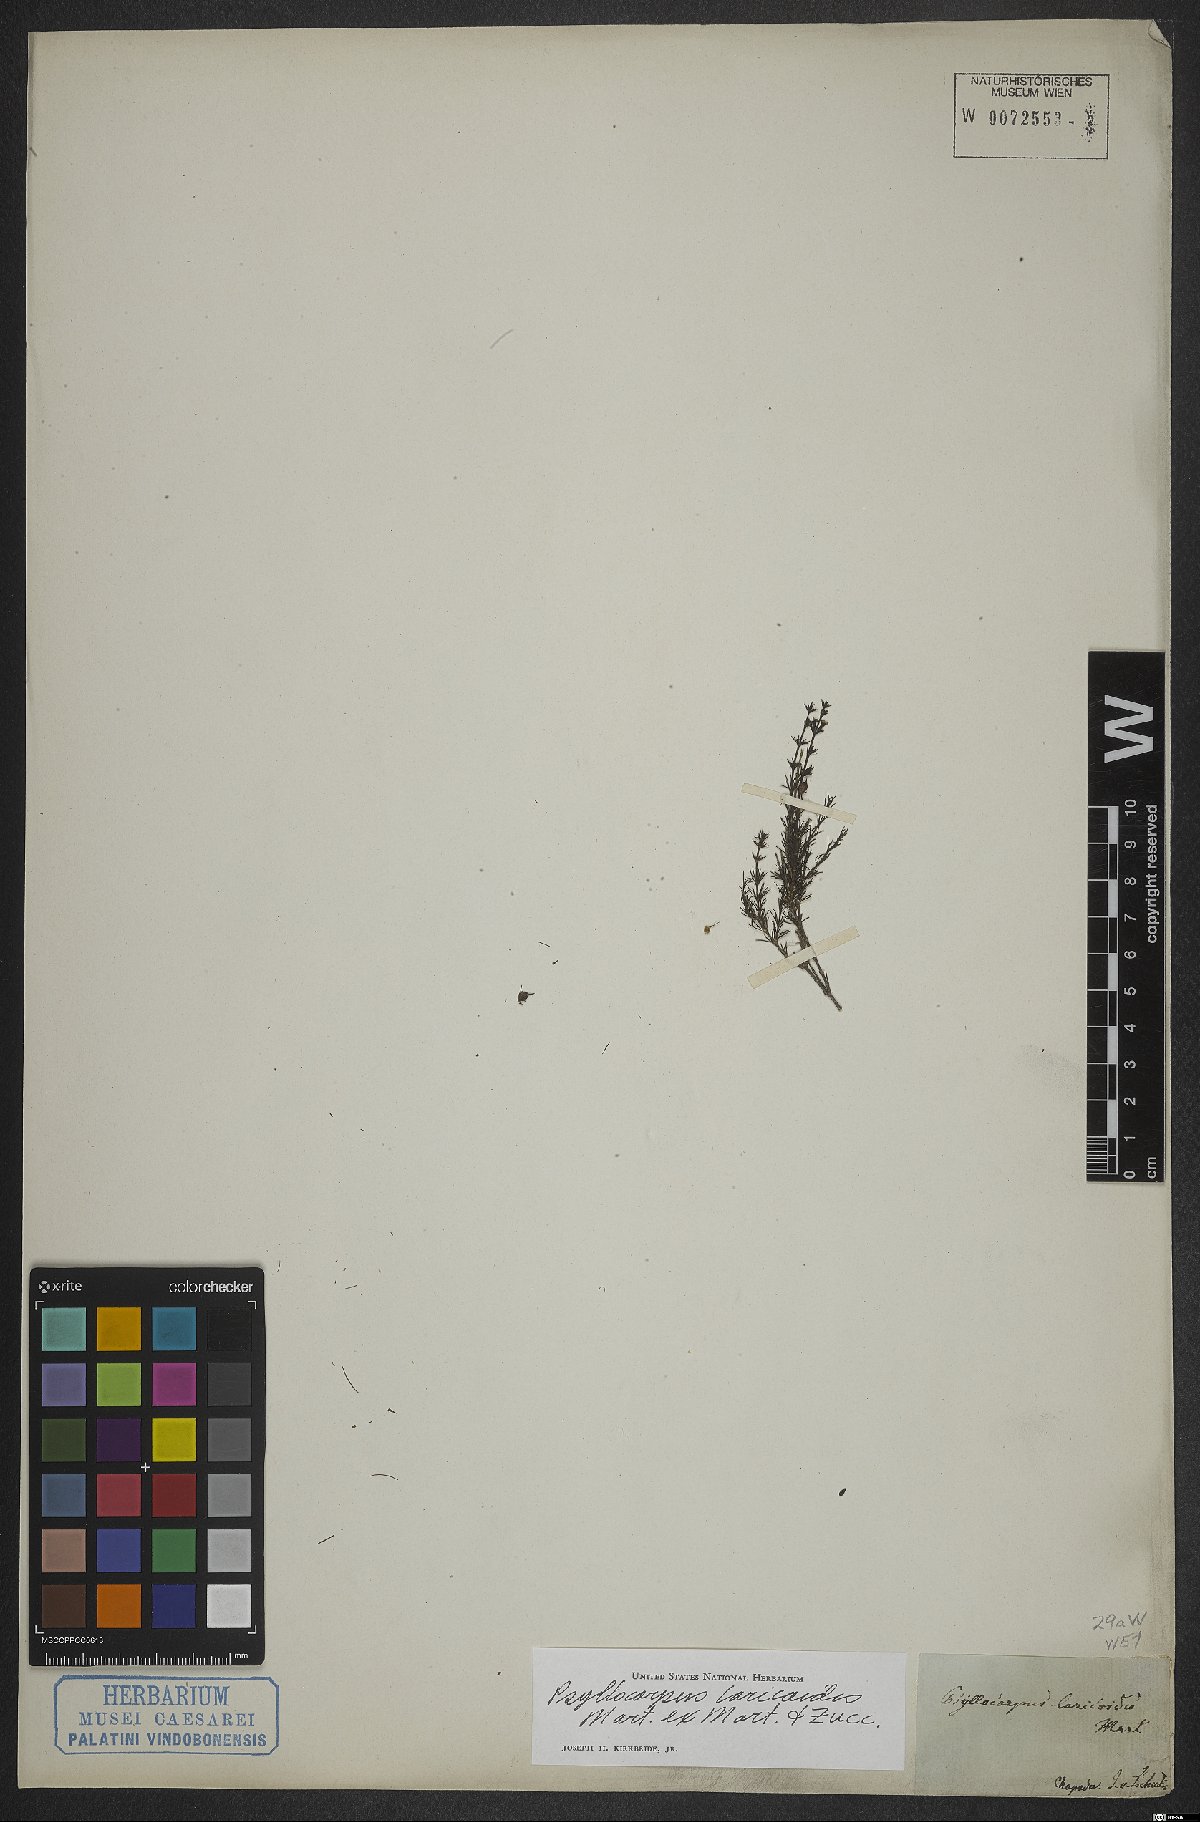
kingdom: Plantae
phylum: Tracheophyta
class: Magnoliopsida
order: Gentianales
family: Rubiaceae
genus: Psyllocarpus
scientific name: Psyllocarpus laricoides
